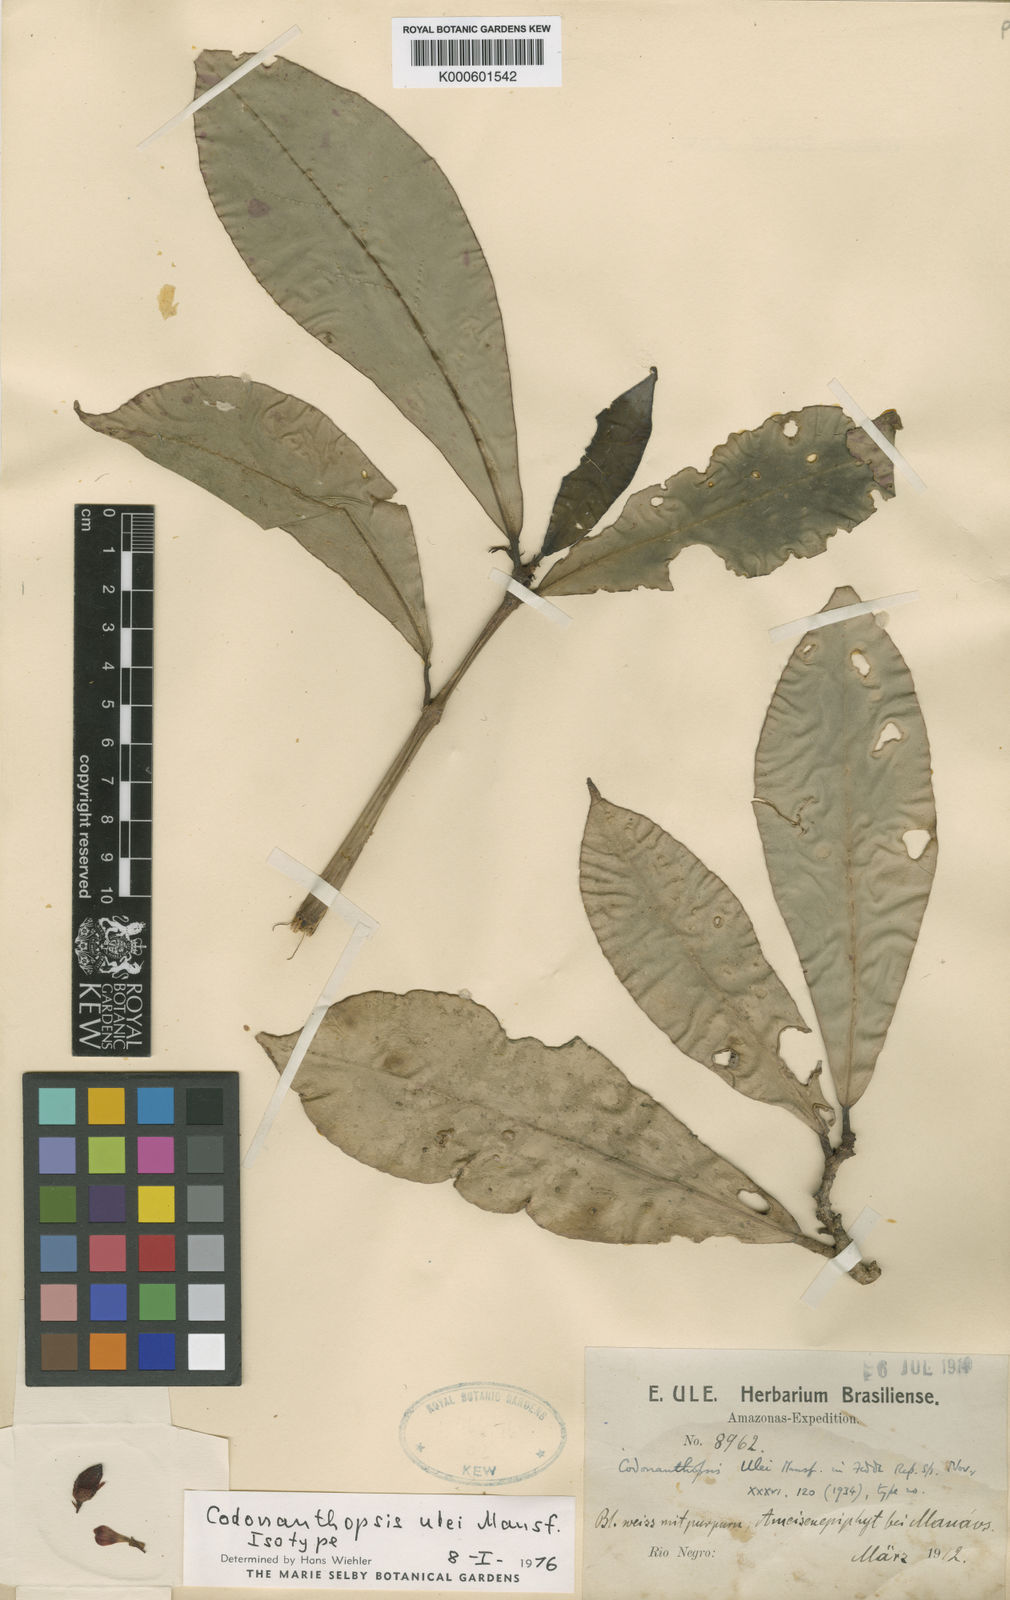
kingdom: Plantae
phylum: Tracheophyta
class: Magnoliopsida
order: Lamiales
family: Gesneriaceae
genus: Codonanthopsis
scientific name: Codonanthopsis ulei
